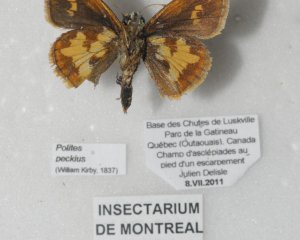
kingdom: Animalia
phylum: Arthropoda
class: Insecta
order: Lepidoptera
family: Hesperiidae
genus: Polites
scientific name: Polites coras
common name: Peck's Skipper
